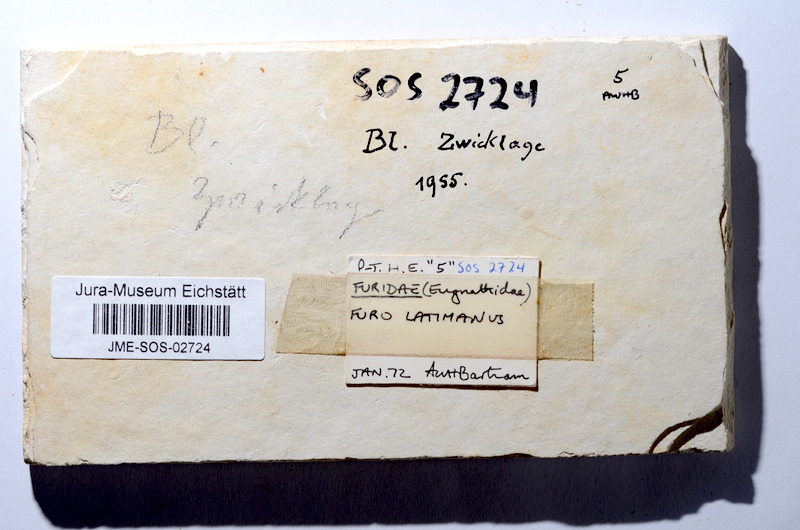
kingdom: Animalia
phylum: Chordata
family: Ophiopsiellidae
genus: Furo
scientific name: Furo latimanus
